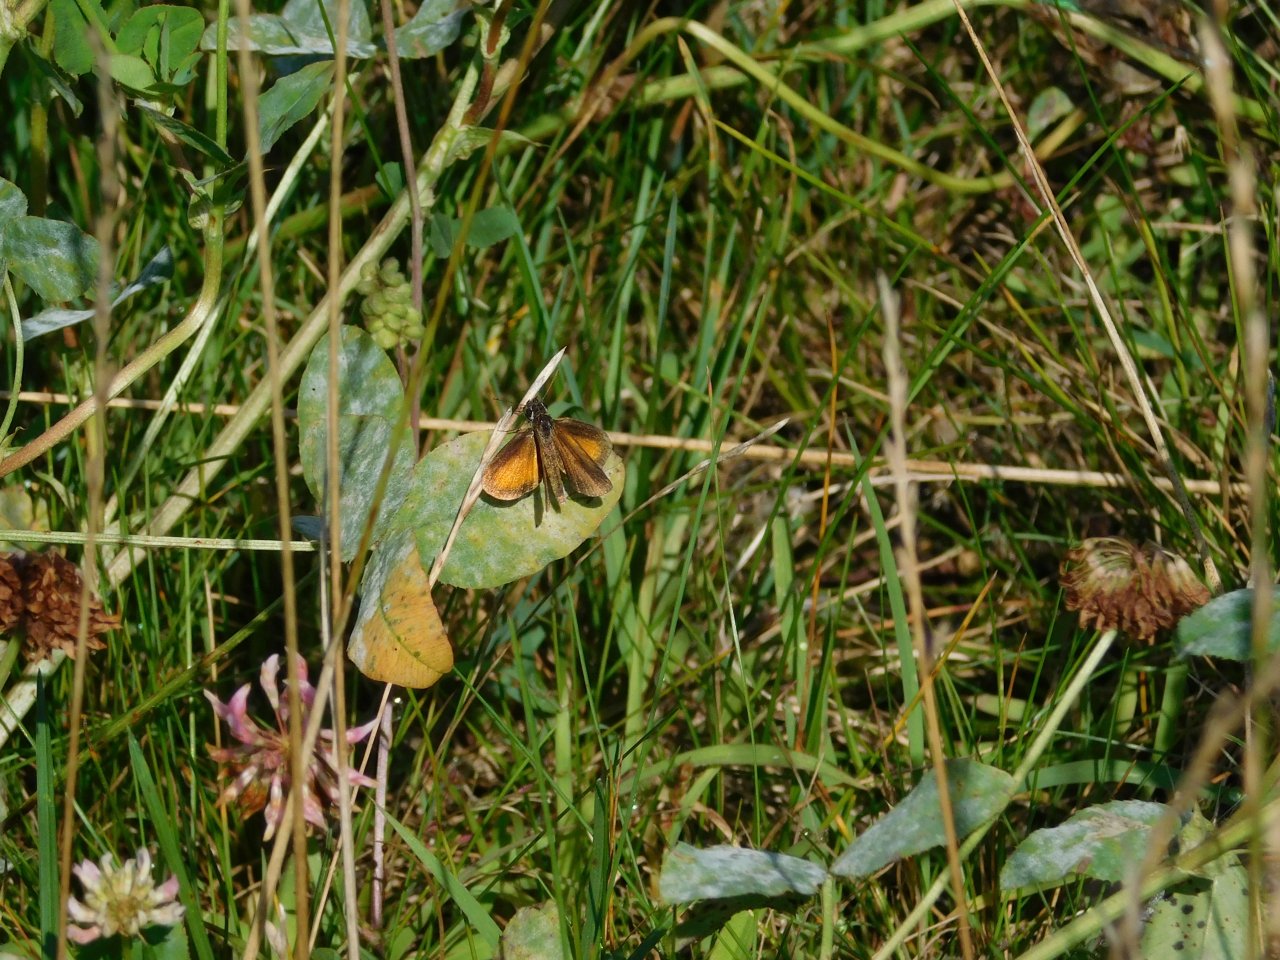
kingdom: Animalia
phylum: Arthropoda
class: Insecta
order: Lepidoptera
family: Hesperiidae
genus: Ancyloxypha
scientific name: Ancyloxypha numitor
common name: Least Skipper
